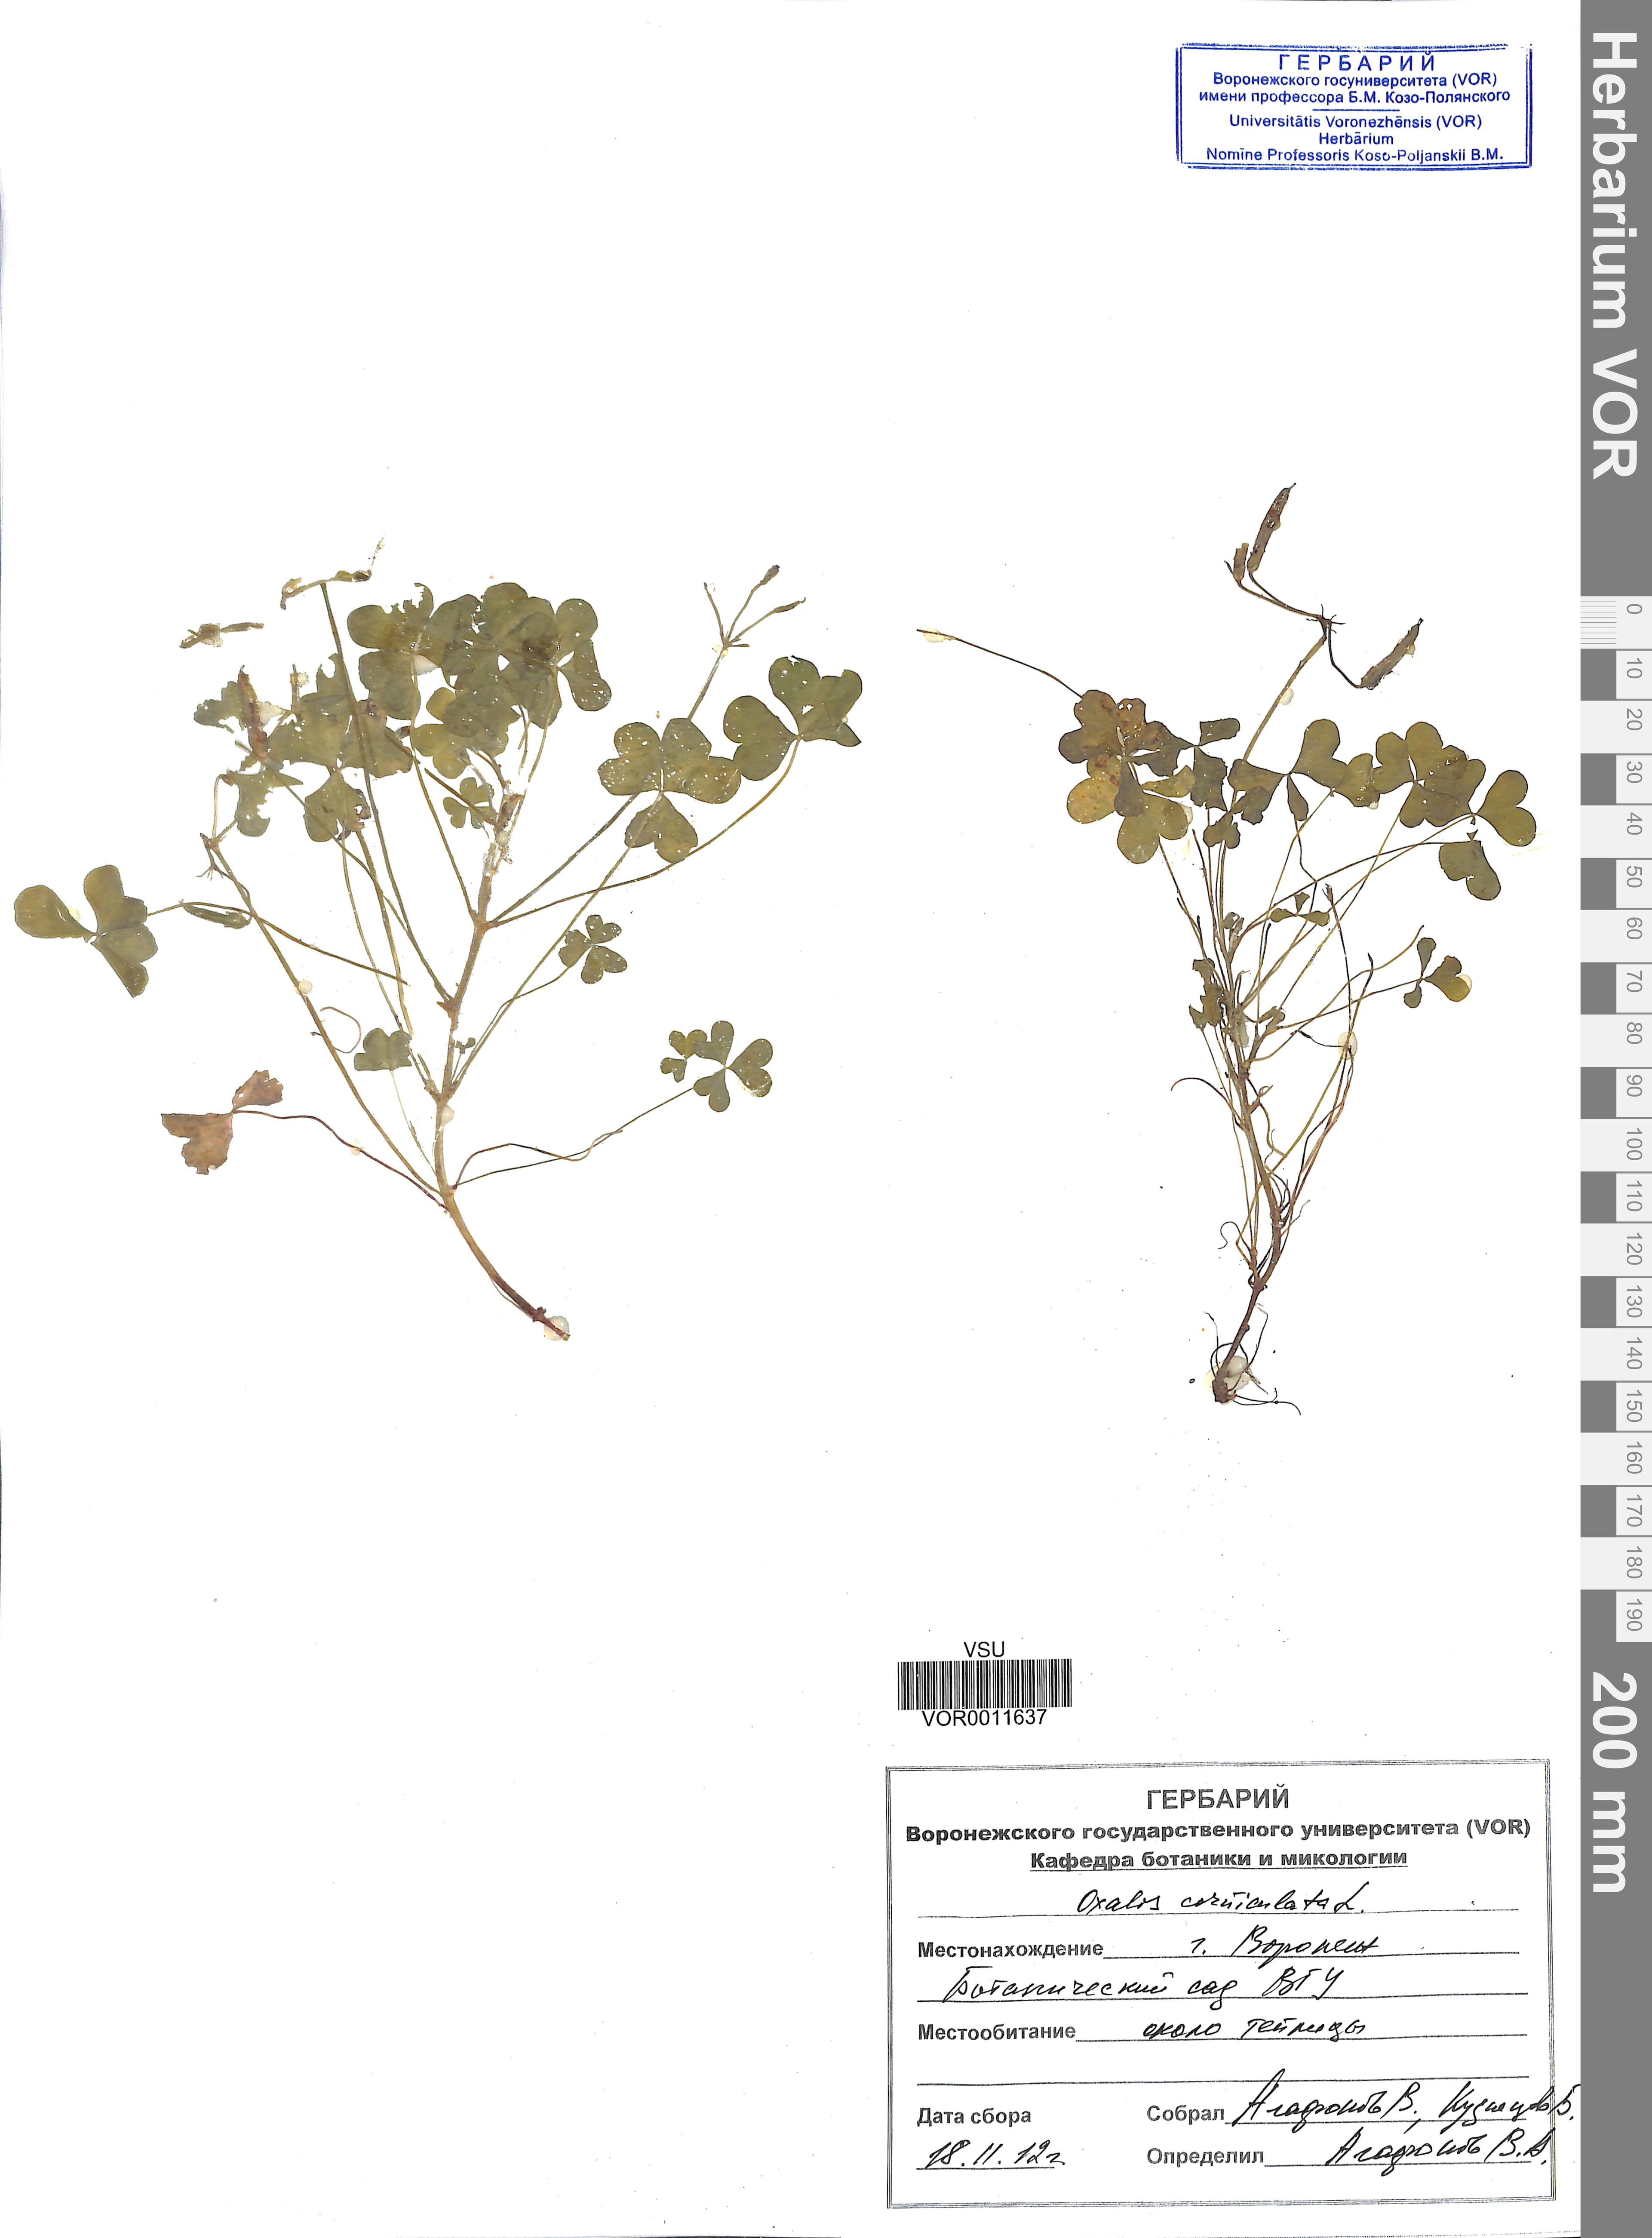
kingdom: Plantae
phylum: Tracheophyta
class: Magnoliopsida
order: Oxalidales
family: Oxalidaceae
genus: Oxalis
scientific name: Oxalis corniculata
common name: Procumbent yellow-sorrel
